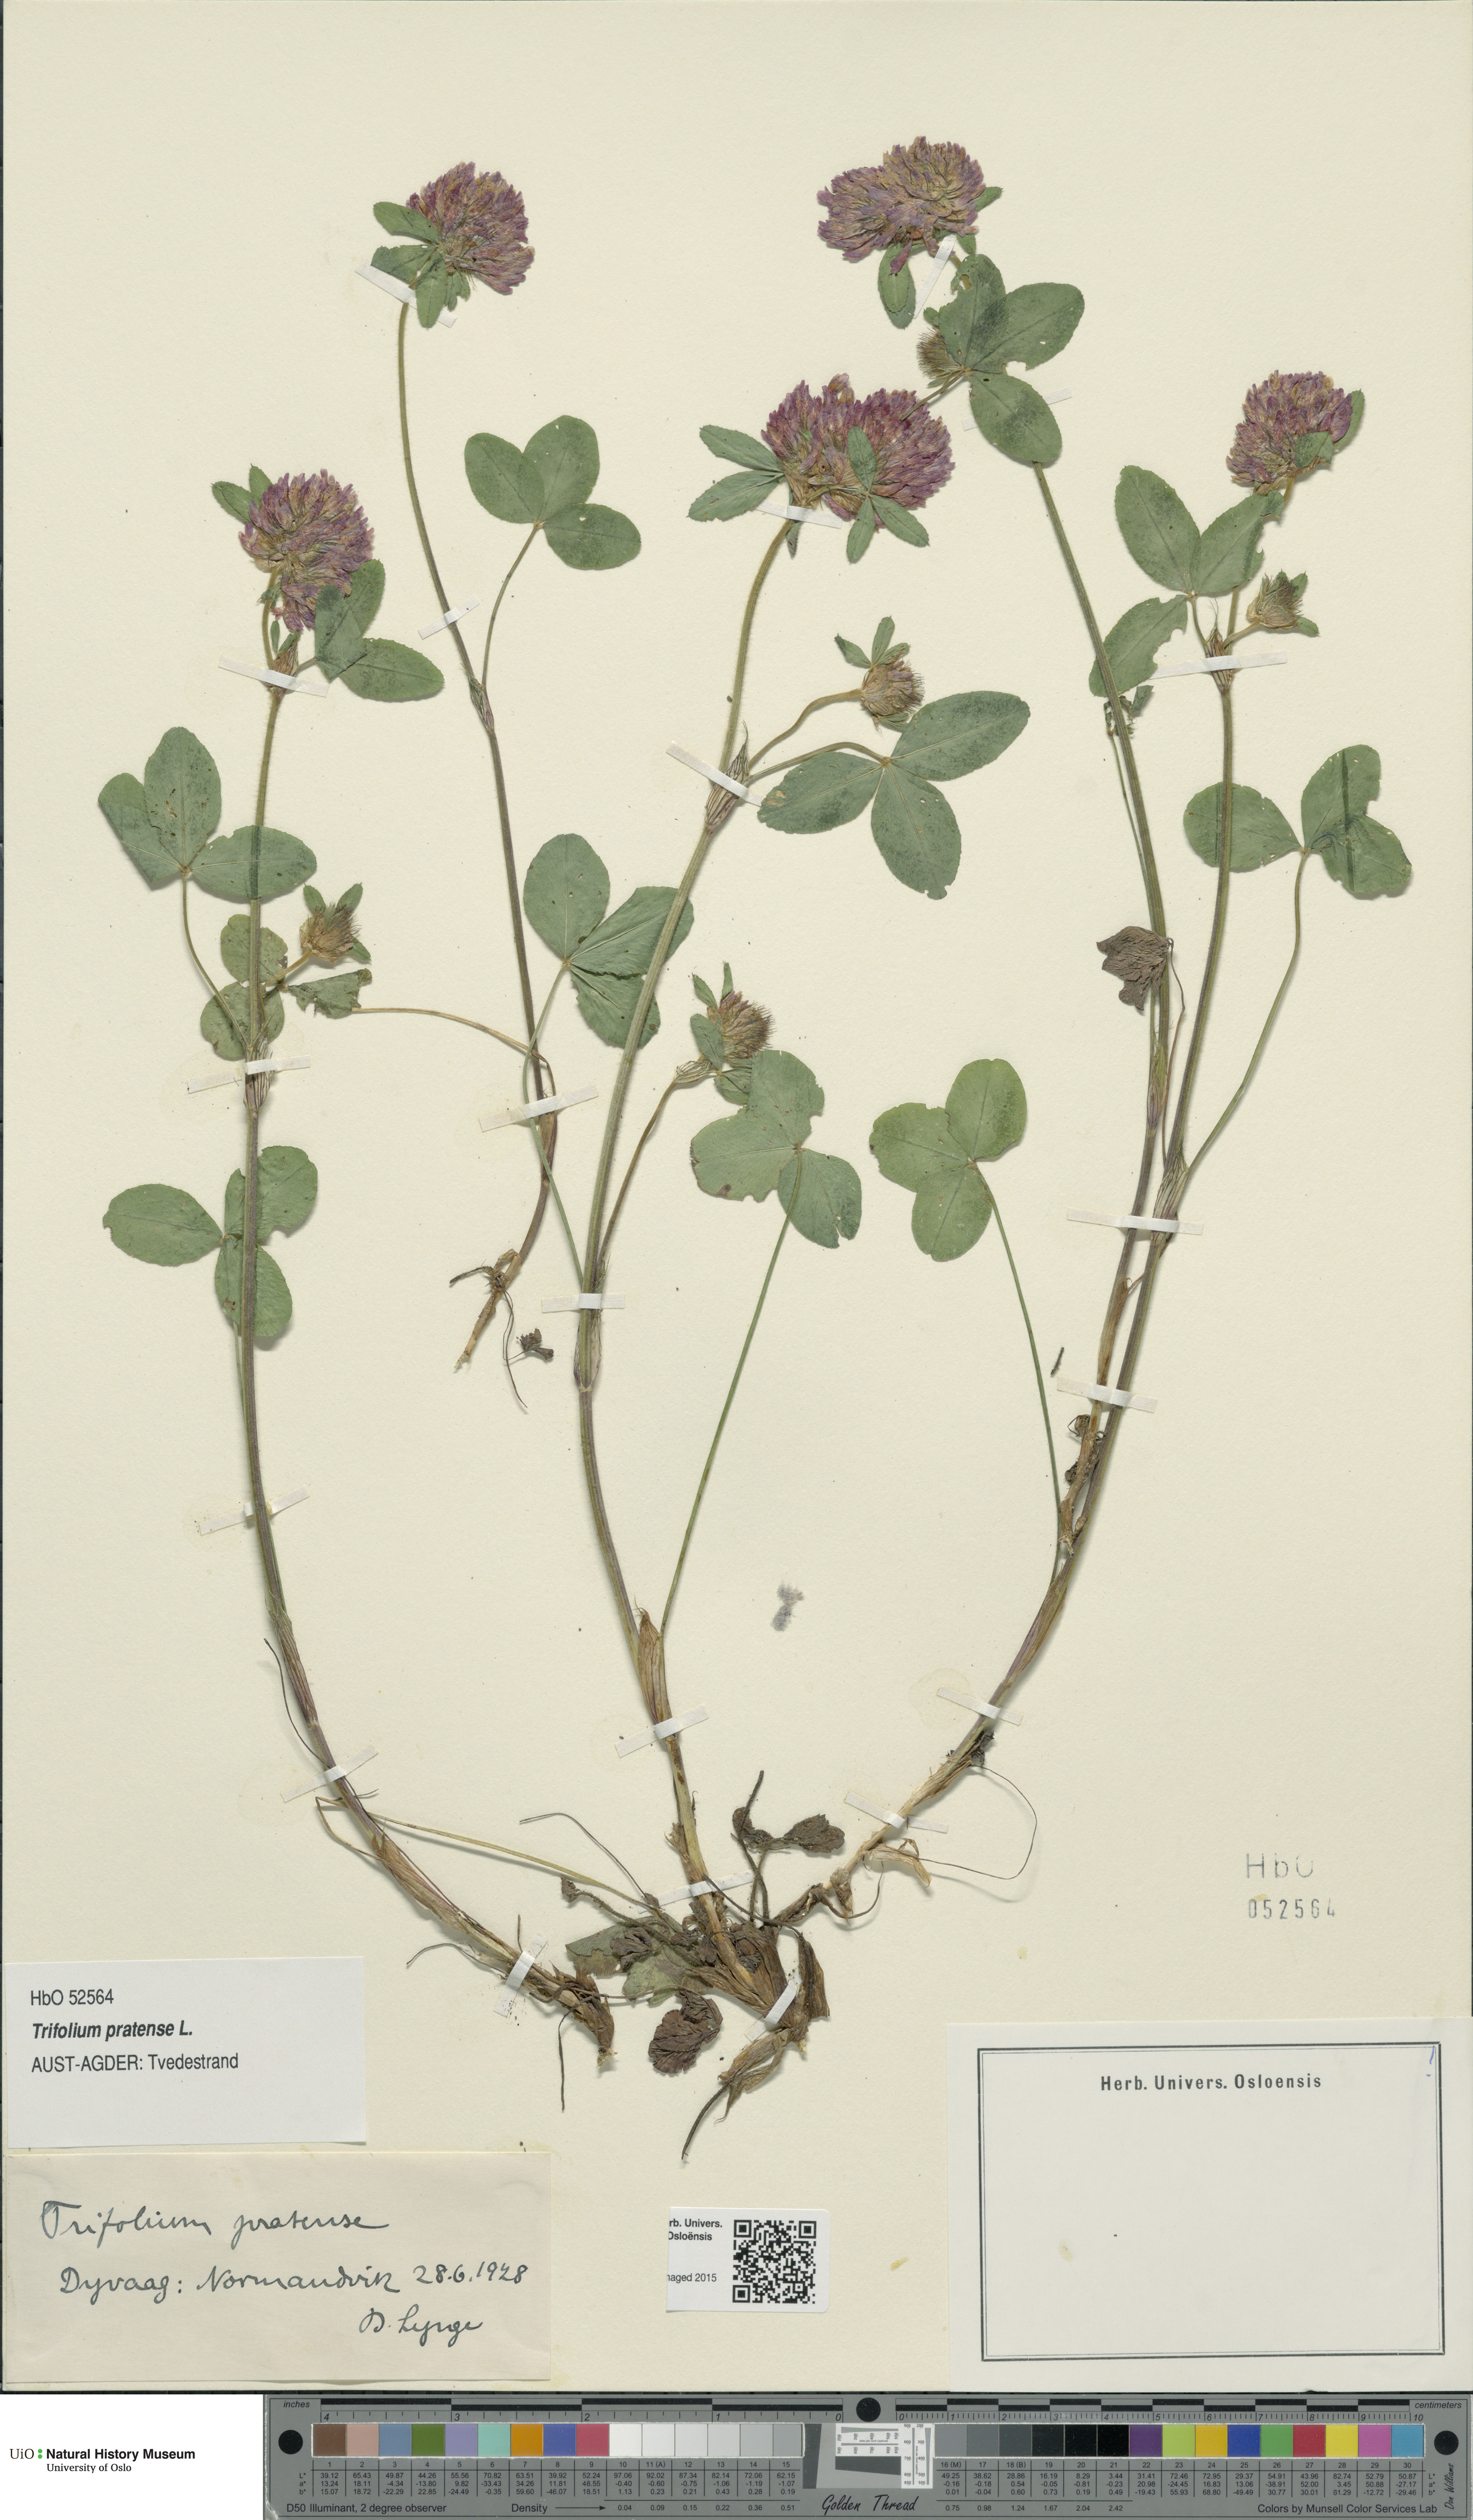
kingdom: Plantae
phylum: Tracheophyta
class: Magnoliopsida
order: Fabales
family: Fabaceae
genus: Trifolium
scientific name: Trifolium pratense
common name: Red clover
